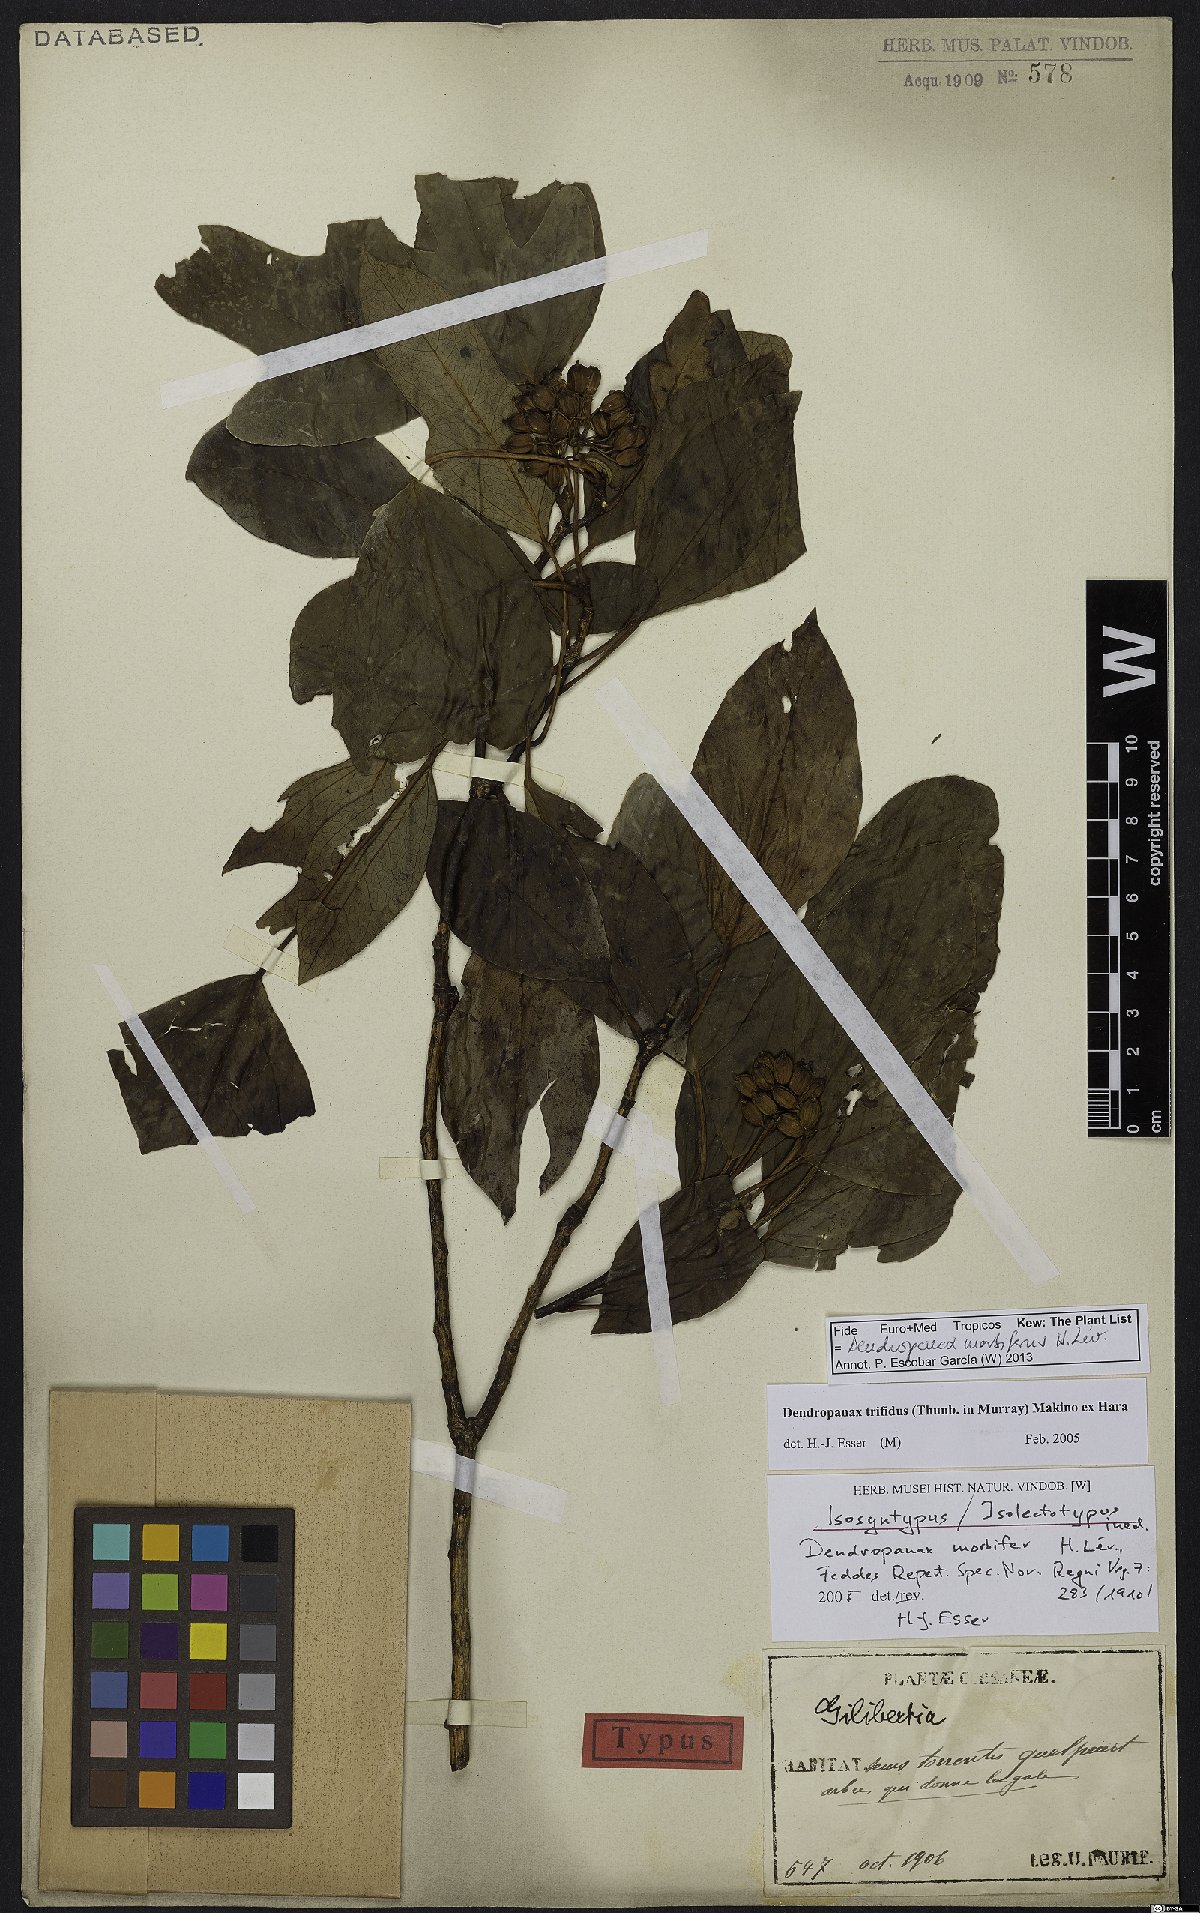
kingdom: Plantae
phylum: Tracheophyta
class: Magnoliopsida
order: Apiales
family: Araliaceae
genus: Dendropanax
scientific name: Dendropanax morbiferus
